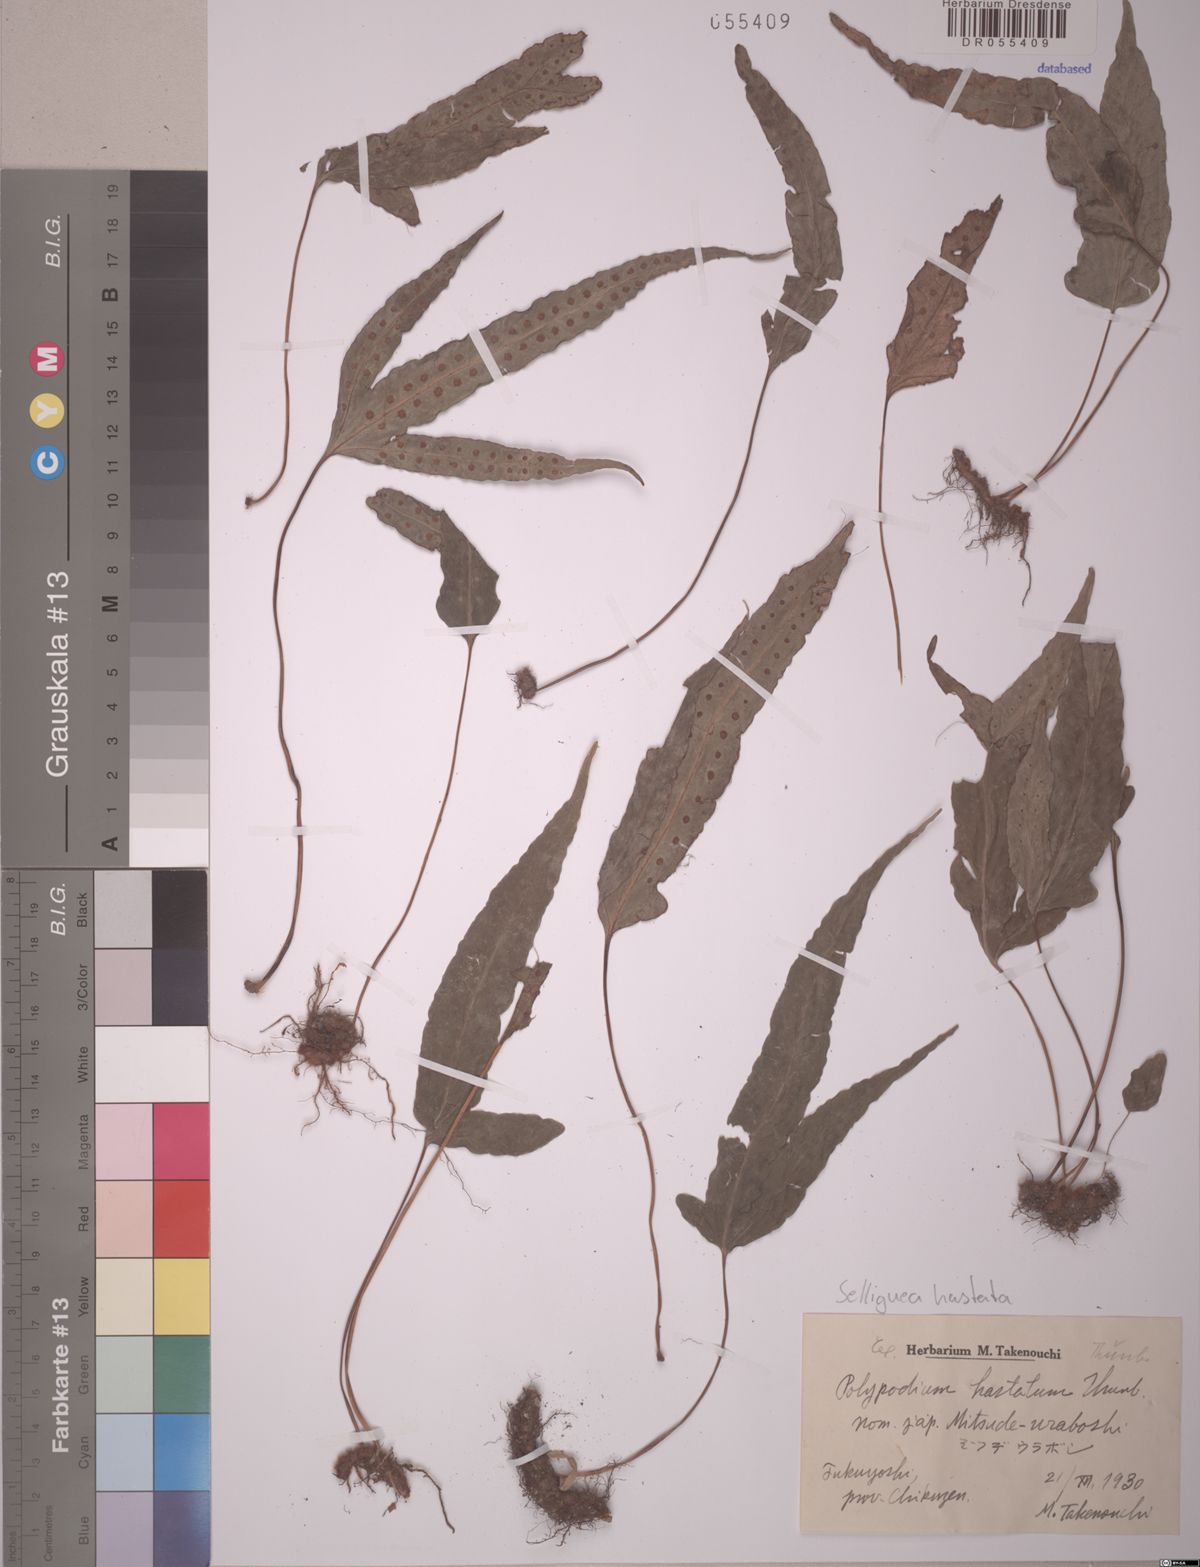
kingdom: Plantae
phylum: Tracheophyta
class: Polypodiopsida
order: Polypodiales
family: Polypodiaceae
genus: Selliguea
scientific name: Selliguea hastata
